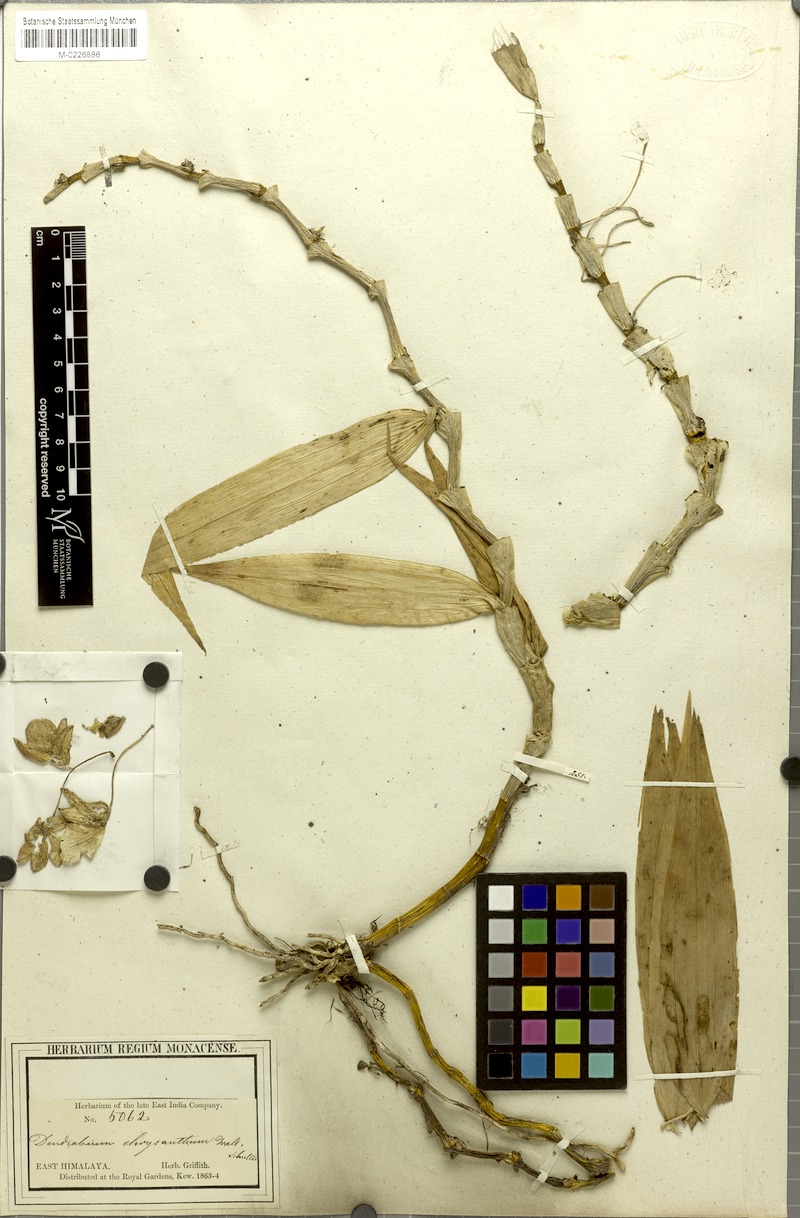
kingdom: Plantae
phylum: Tracheophyta
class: Liliopsida
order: Asparagales
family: Orchidaceae
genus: Dendrobium
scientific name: Dendrobium chrysanthum
